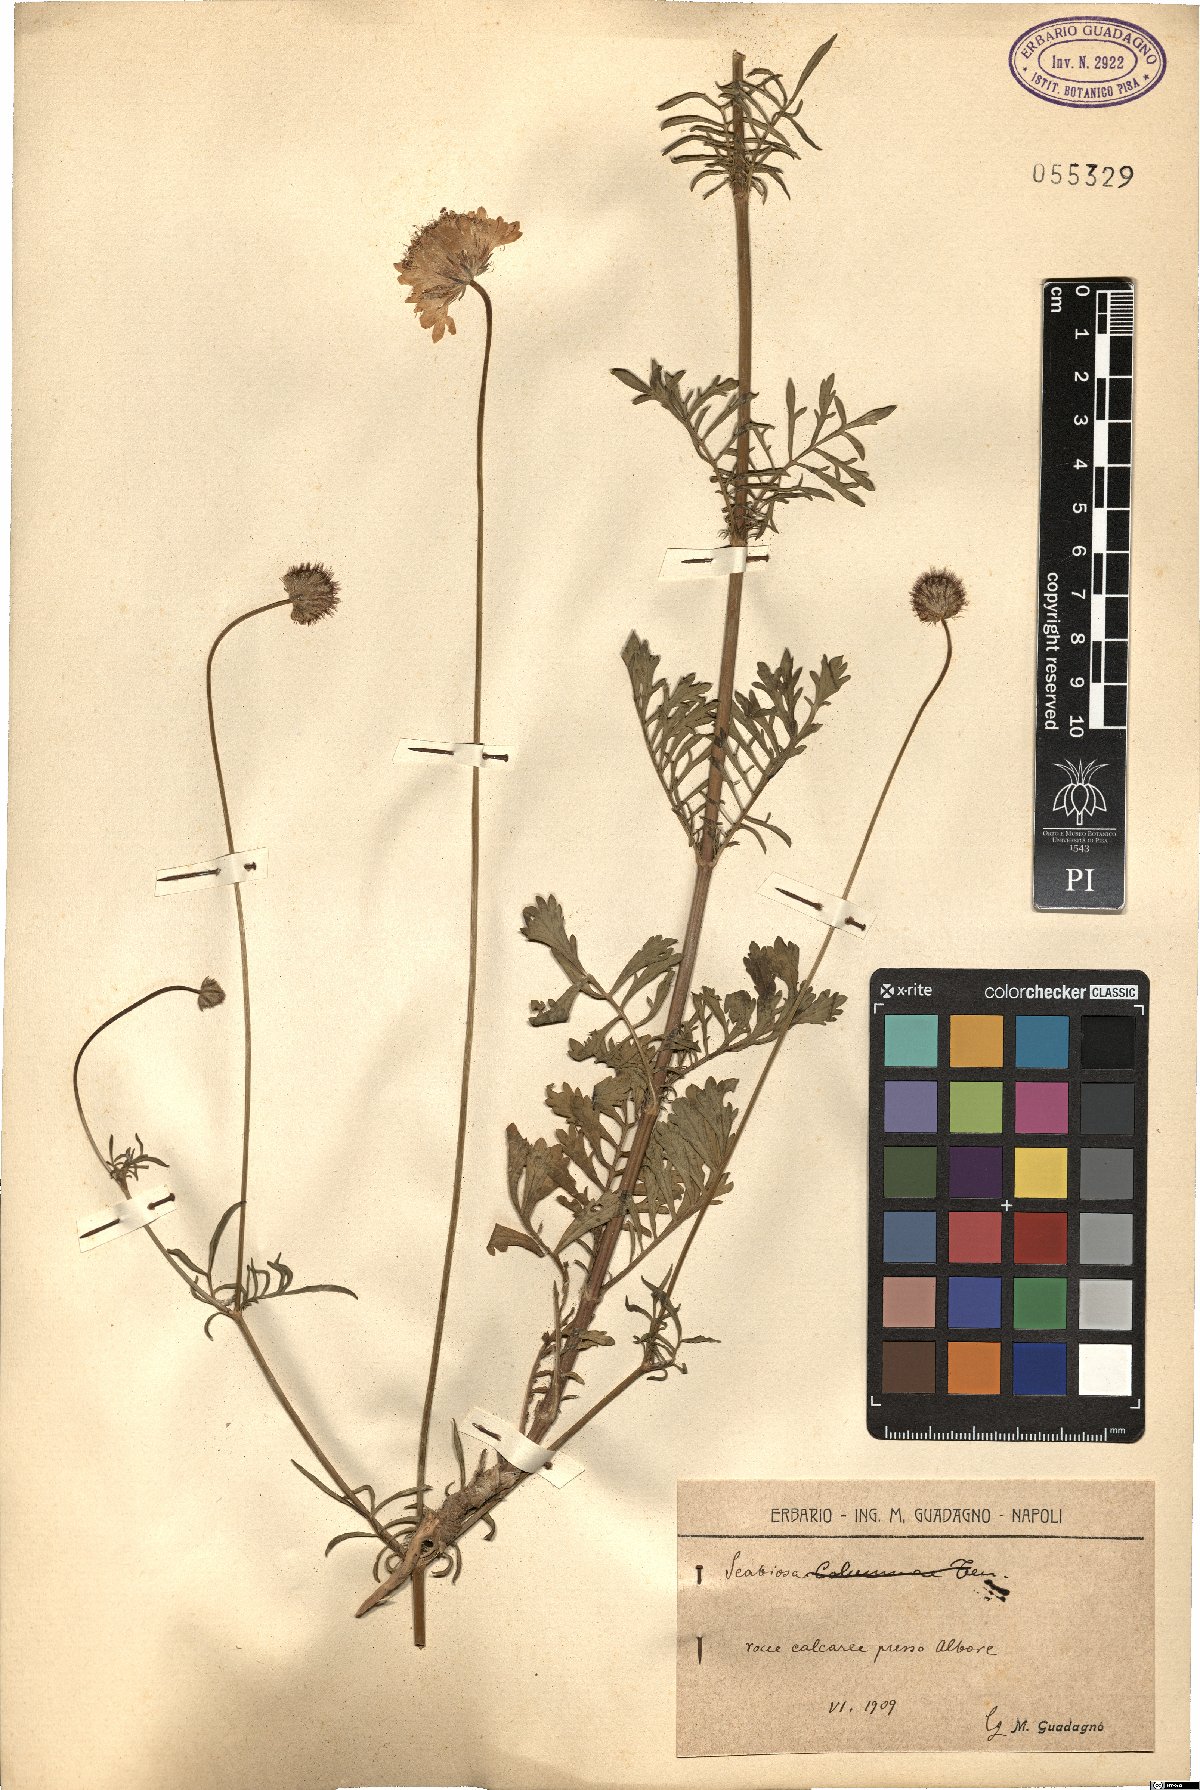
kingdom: Plantae
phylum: Tracheophyta
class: Magnoliopsida
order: Dipsacales
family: Caprifoliaceae
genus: Scabiosa
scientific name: Scabiosa
